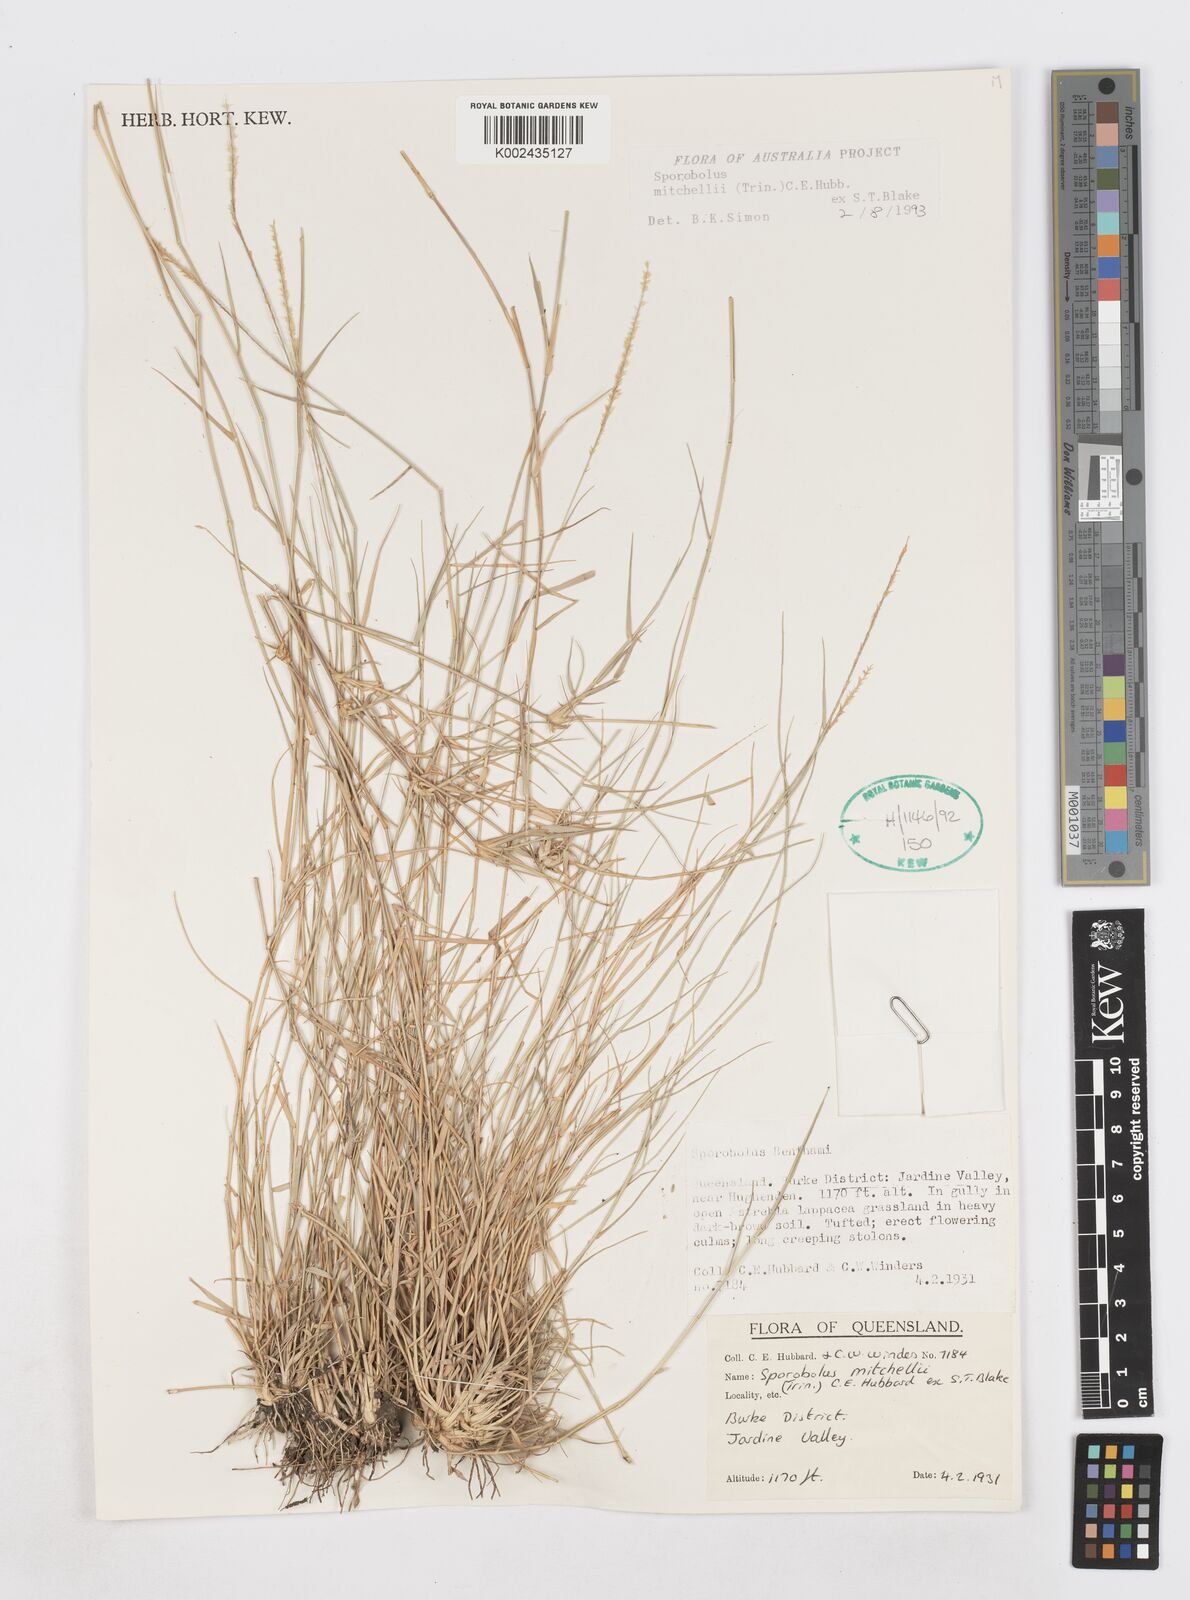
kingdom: Plantae
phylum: Tracheophyta
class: Liliopsida
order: Poales
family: Poaceae
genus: Sporobolus
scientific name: Sporobolus mitchellii
